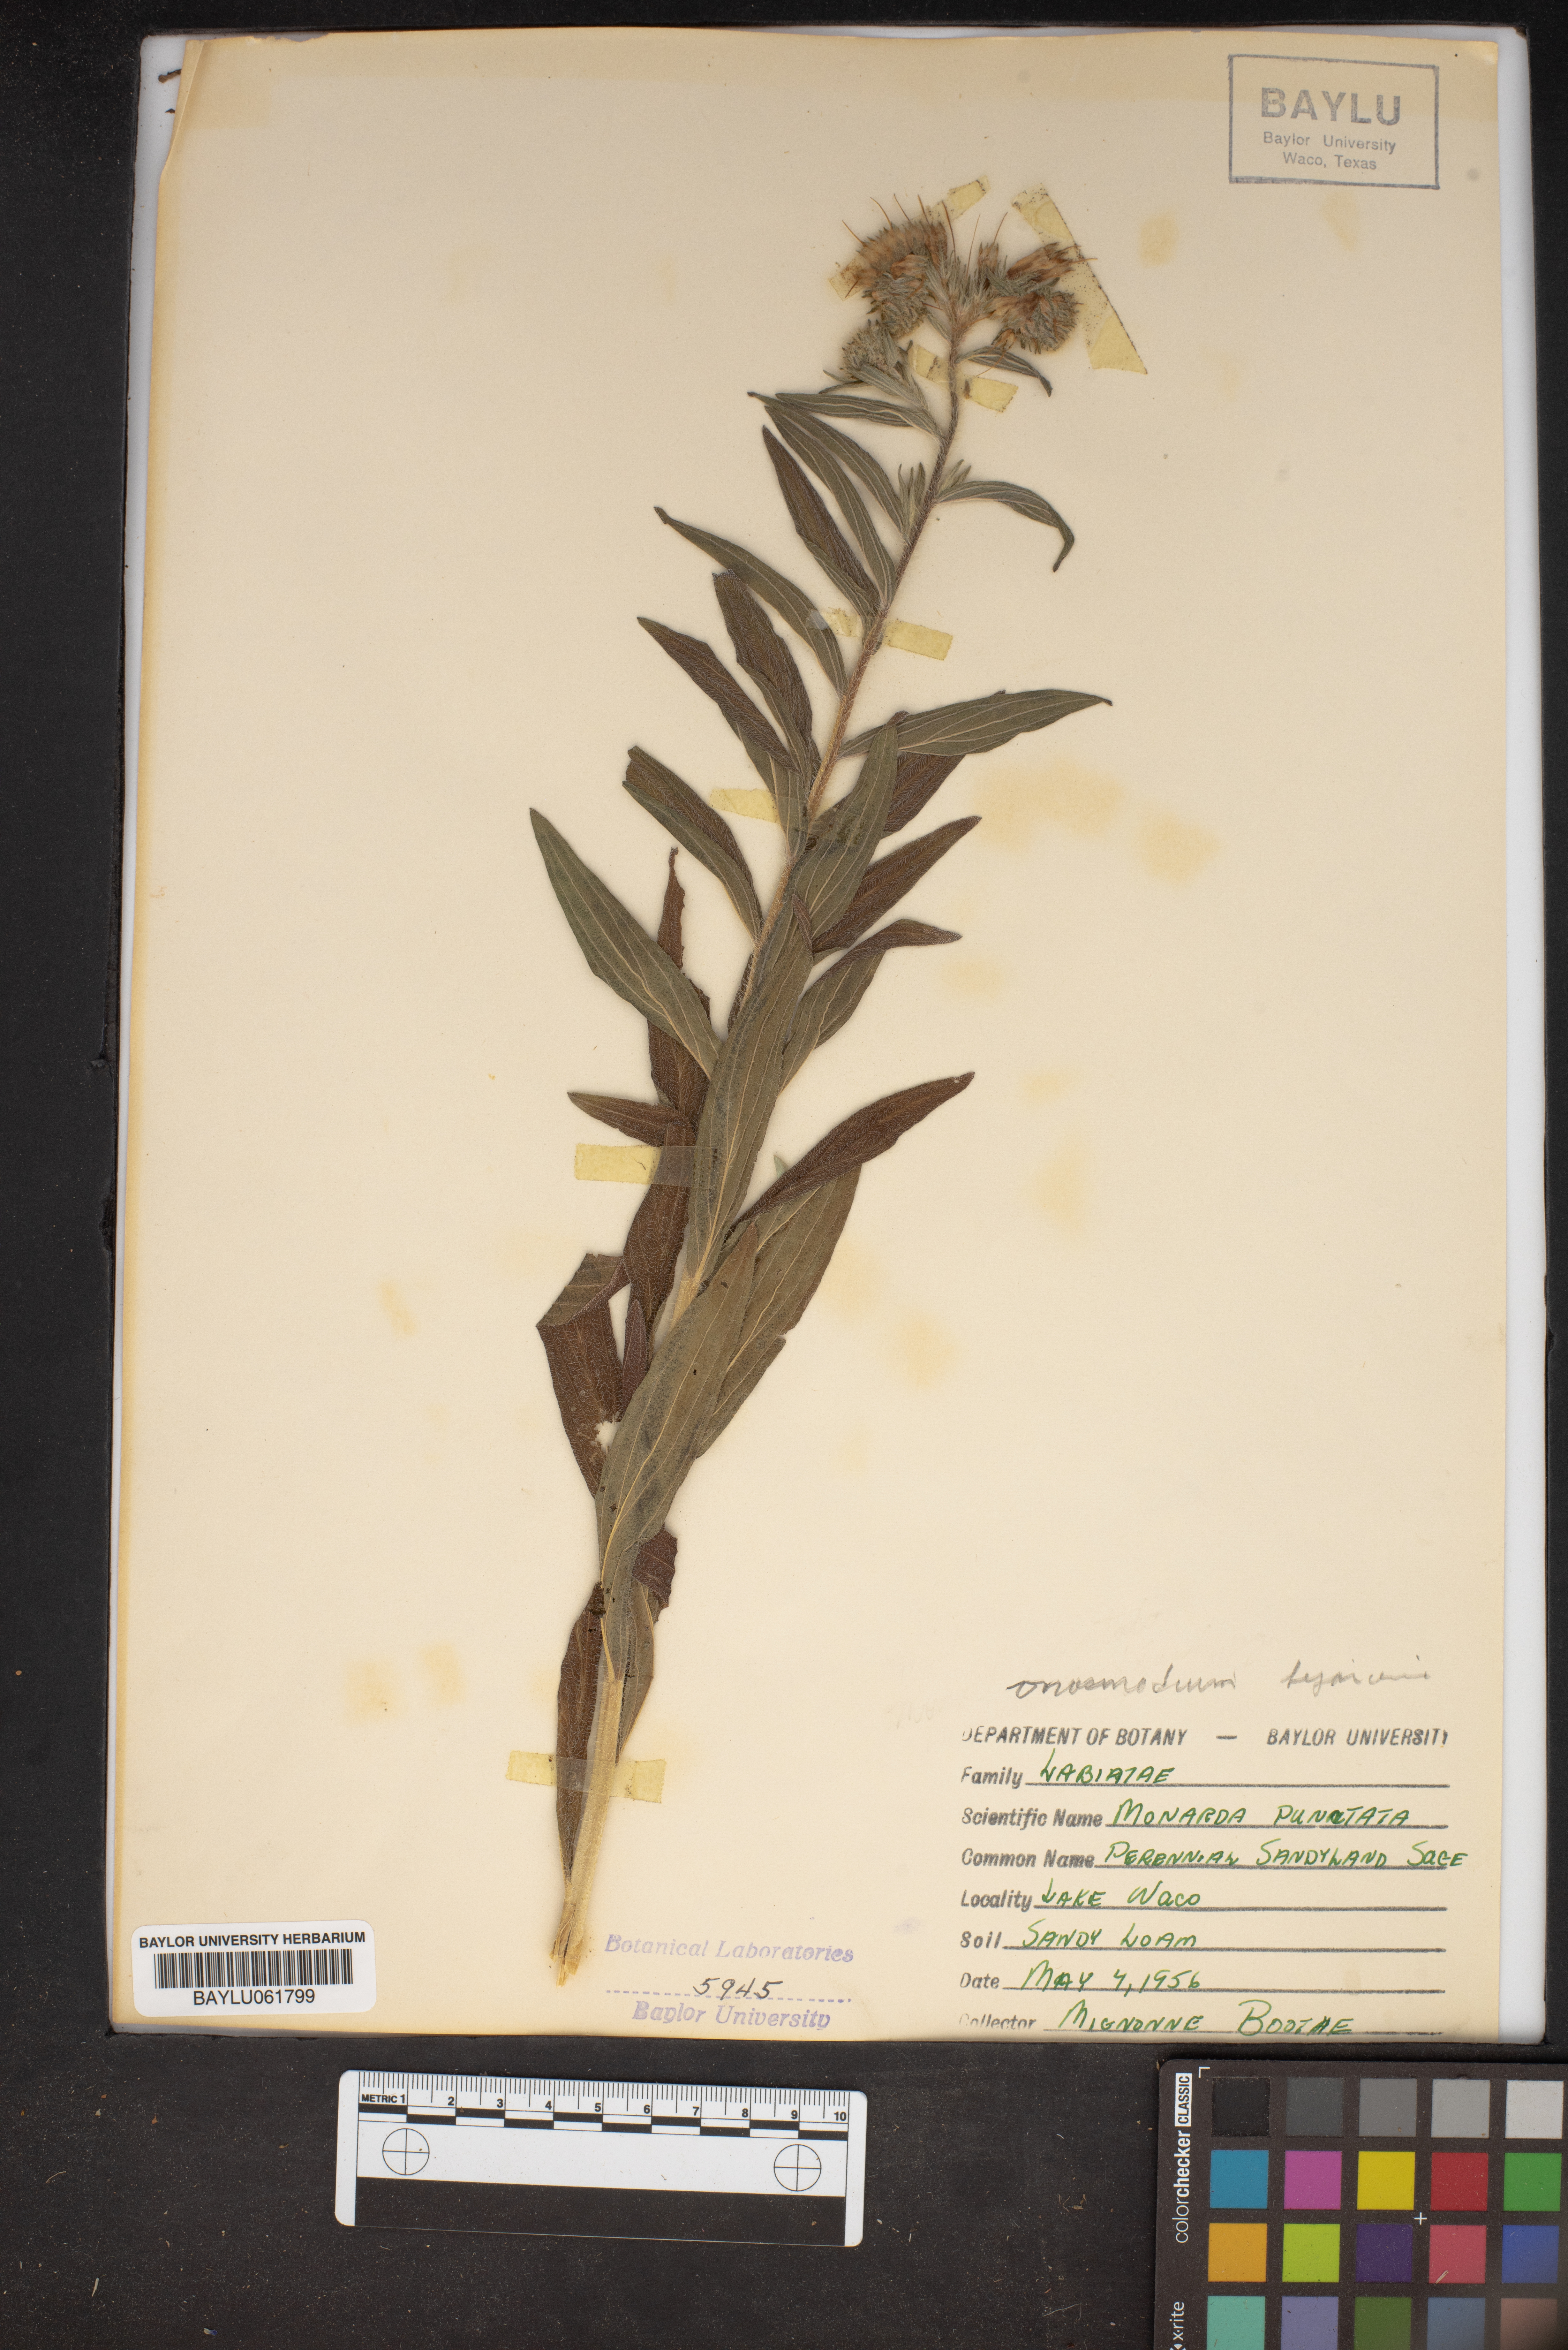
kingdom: Plantae
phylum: Tracheophyta
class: Magnoliopsida
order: Lamiales
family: Lamiaceae
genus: Monarda
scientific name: Monarda punctata
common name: Dotted monarda
